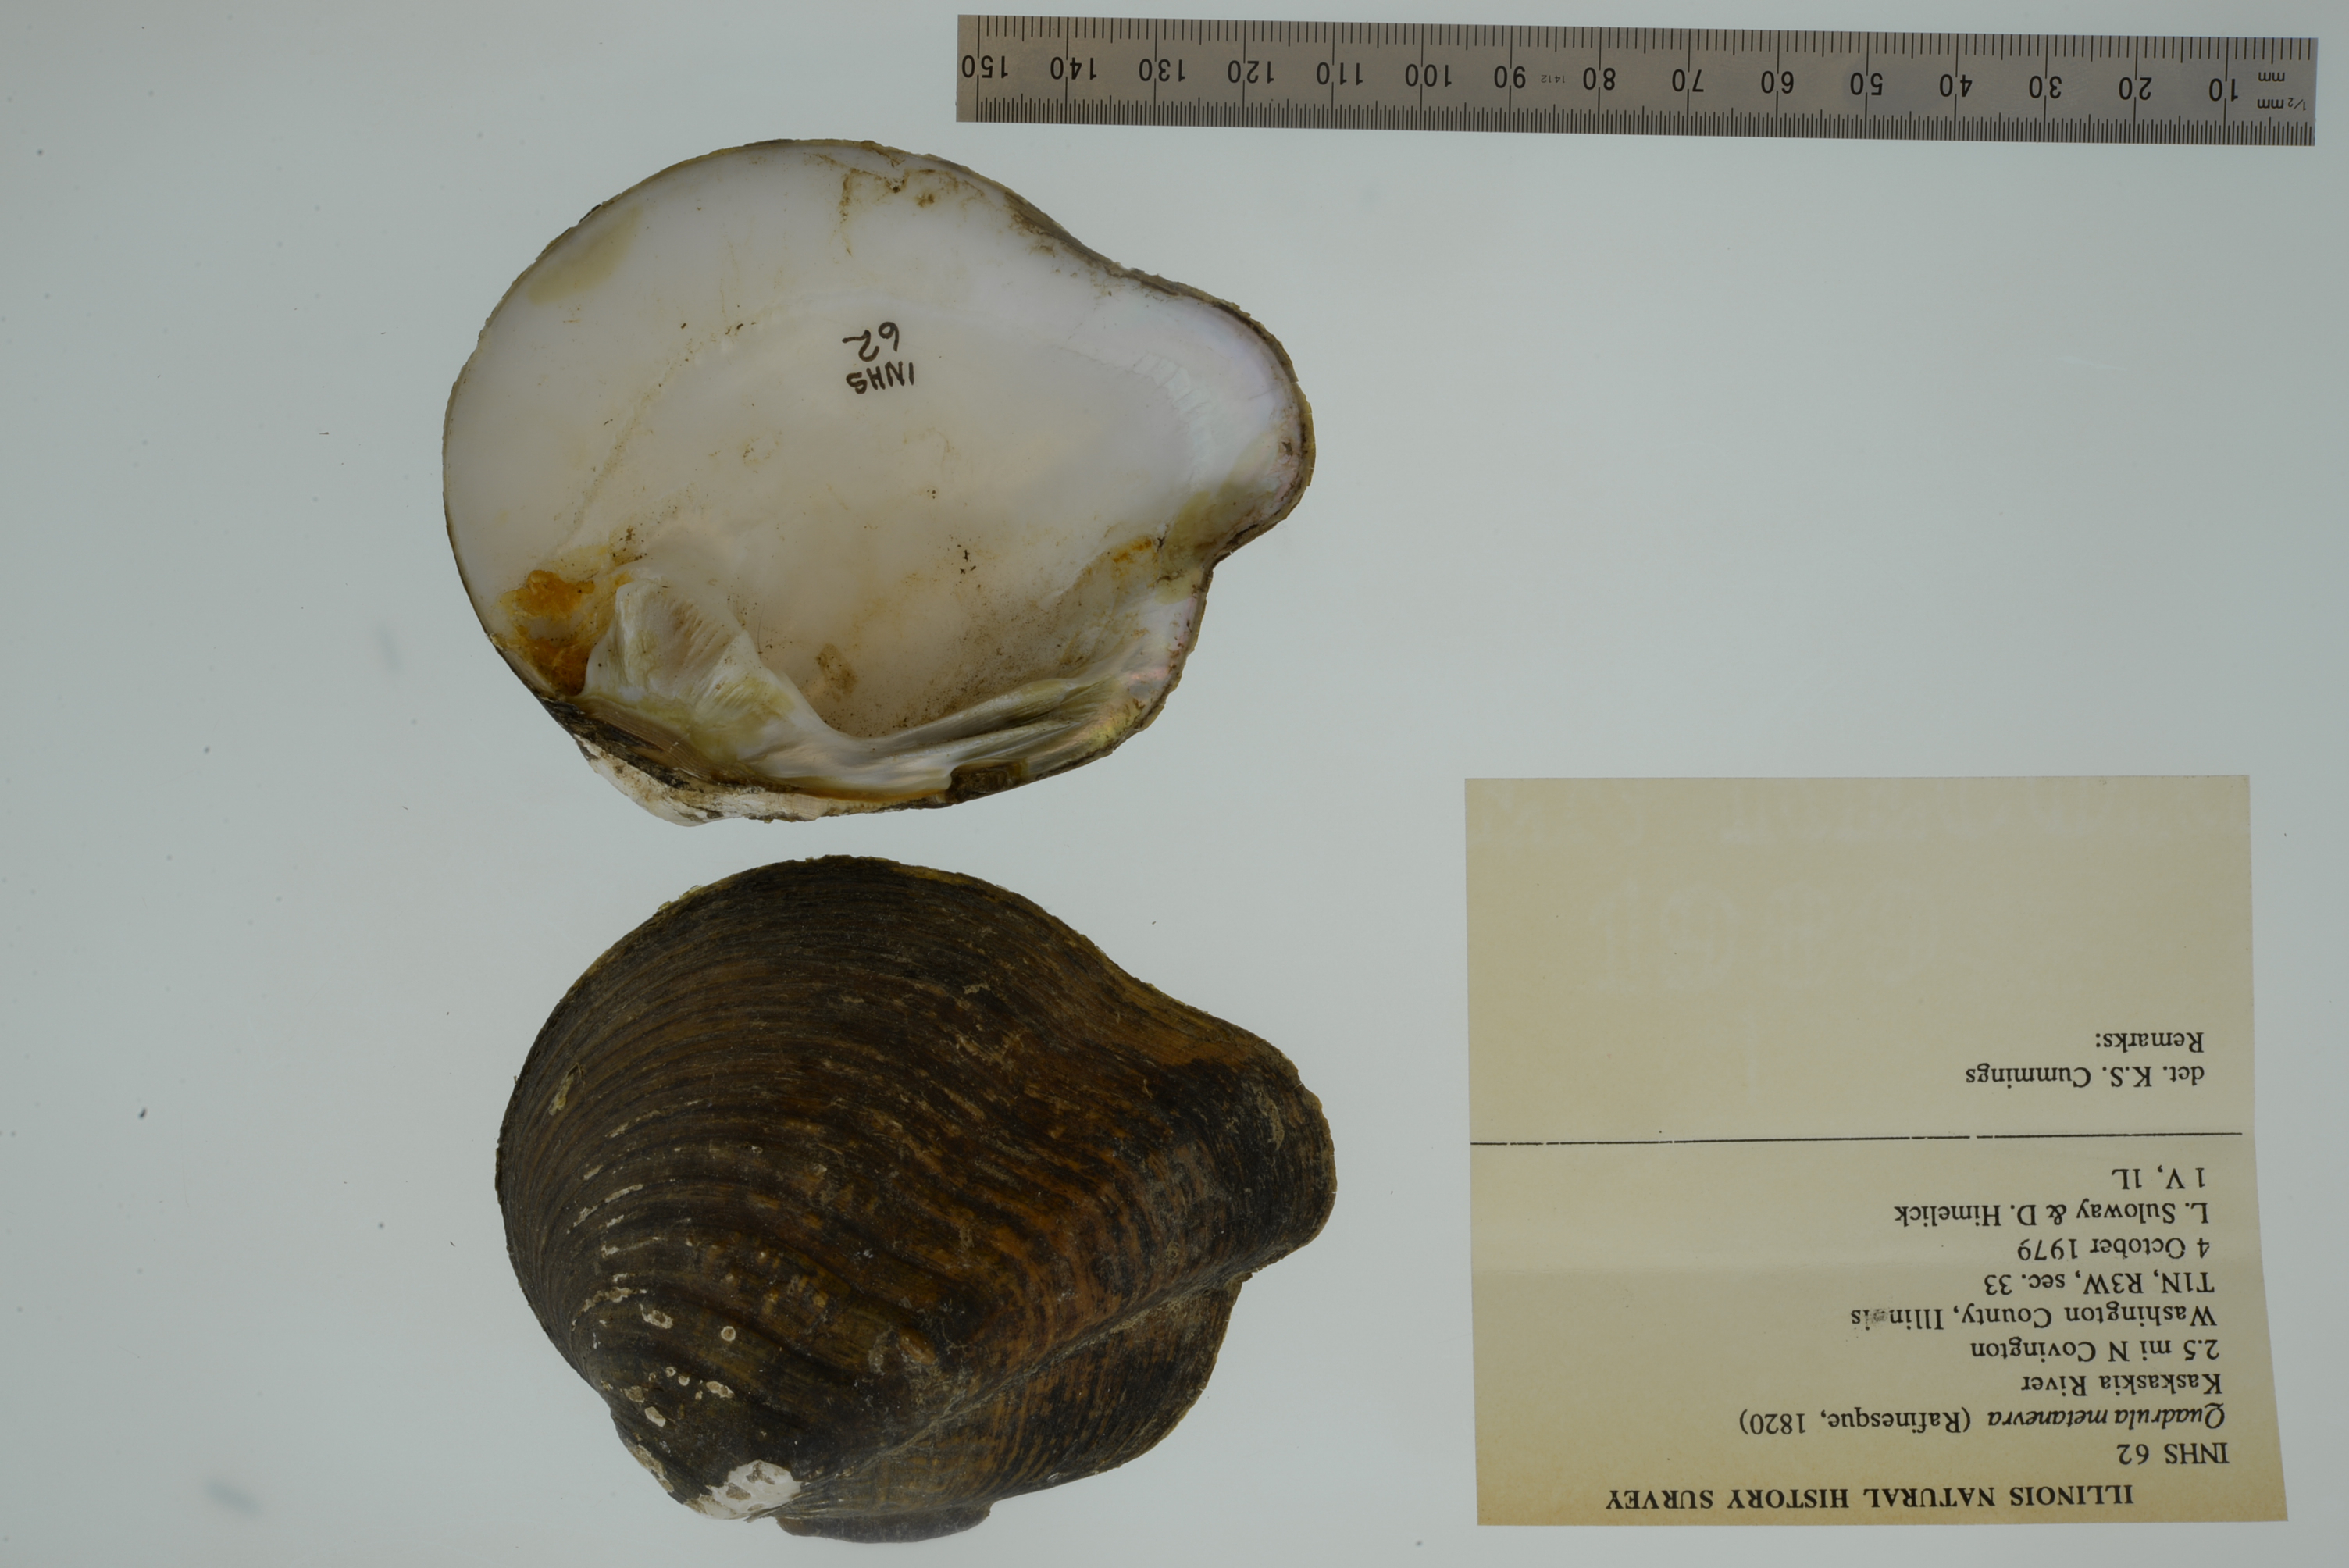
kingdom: Animalia
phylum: Mollusca
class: Bivalvia
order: Unionida
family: Unionidae
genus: Theliderma
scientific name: Theliderma metanevra
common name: Monkeyface
